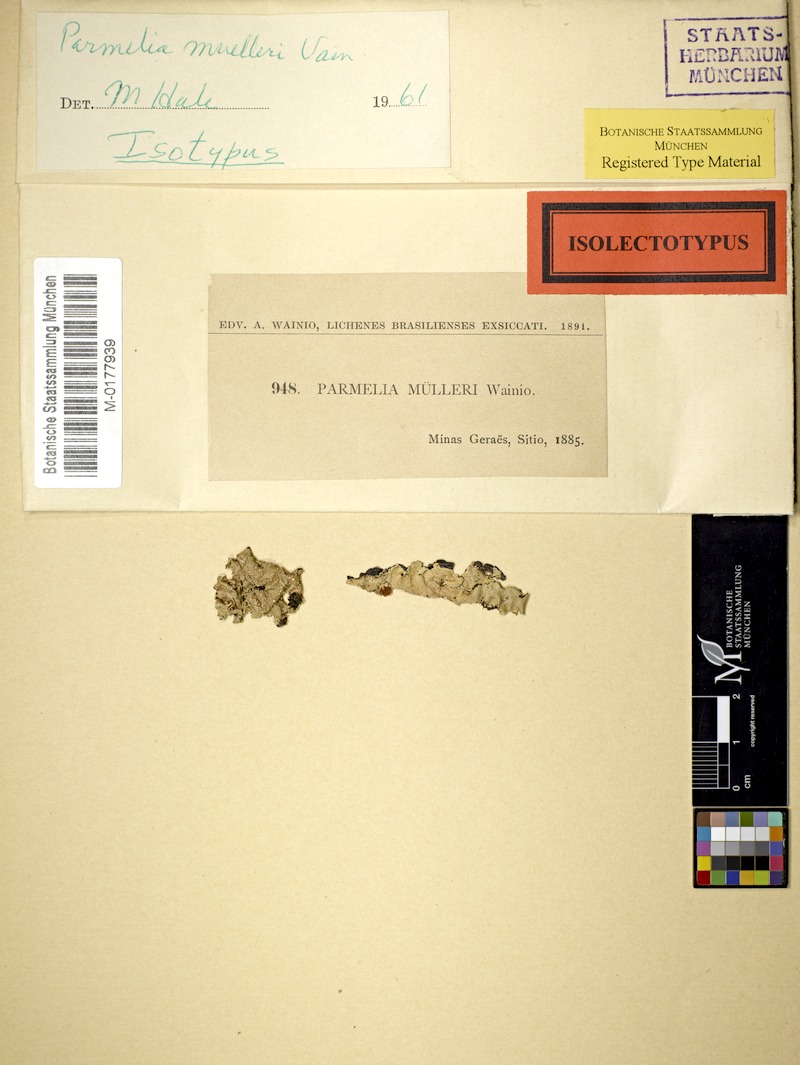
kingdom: Fungi
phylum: Ascomycota
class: Lecanoromycetes
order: Lecanorales
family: Parmeliaceae
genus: Parmotrema
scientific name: Parmotrema muelleri
